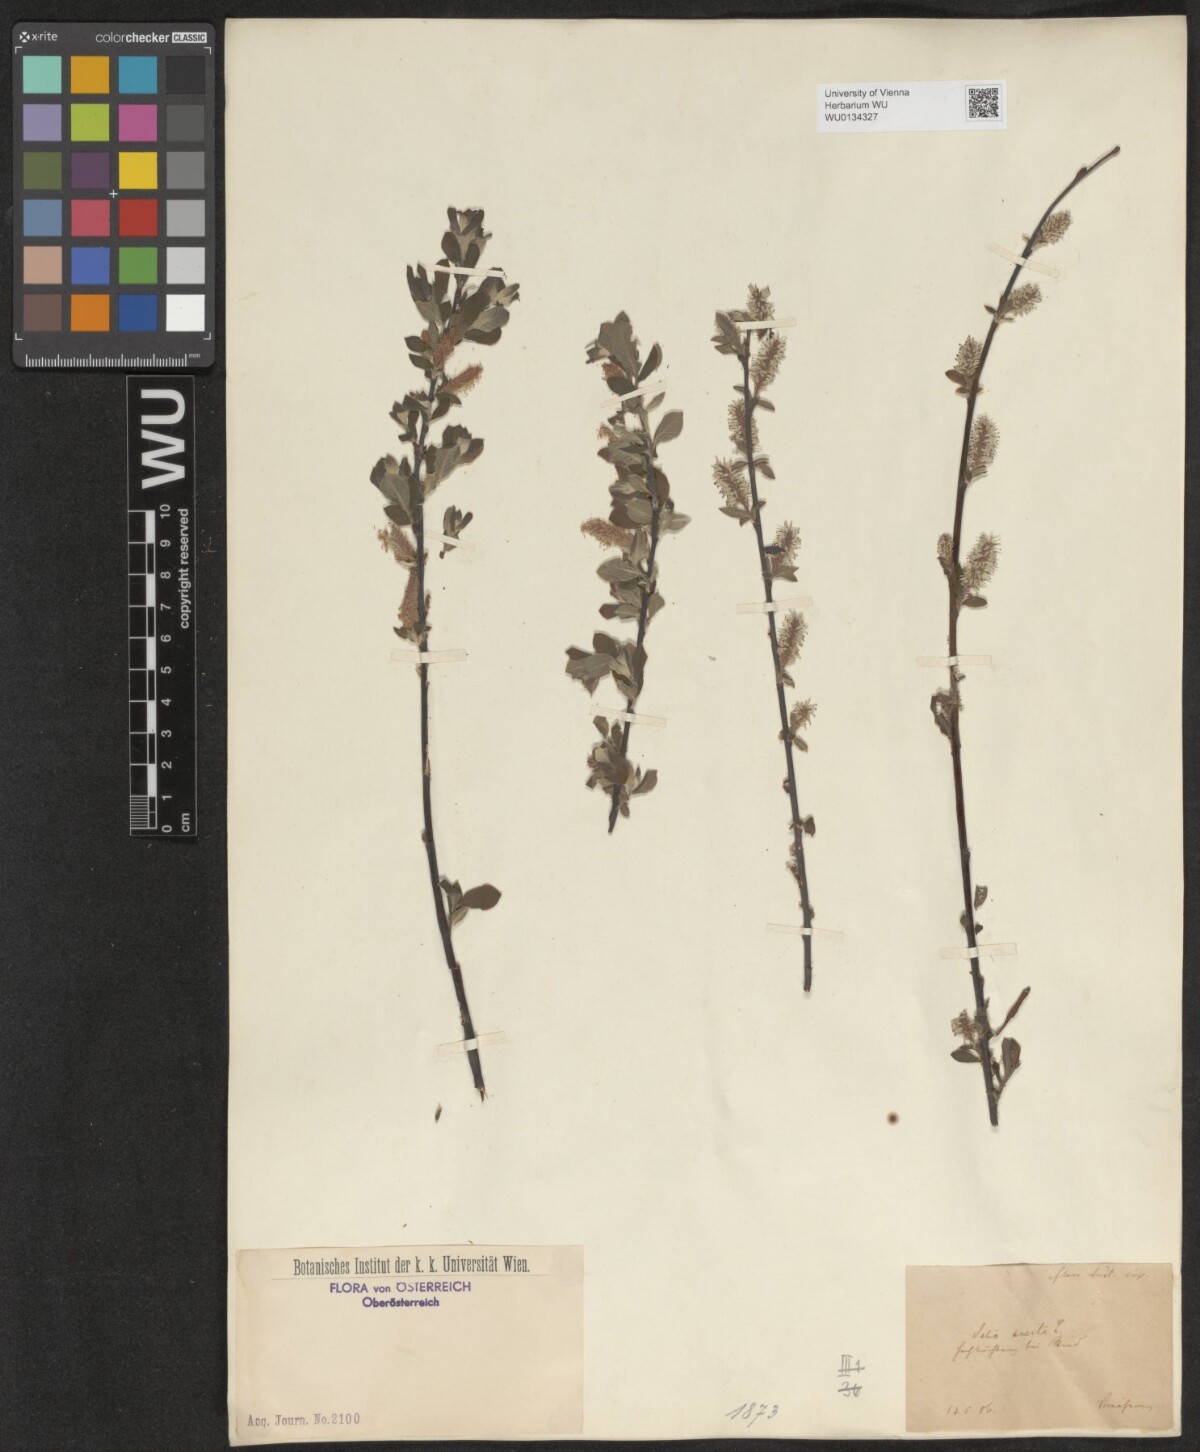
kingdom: Plantae
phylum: Tracheophyta
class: Magnoliopsida
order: Malpighiales
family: Salicaceae
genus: Salix
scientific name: Salix aurita
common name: Eared willow
